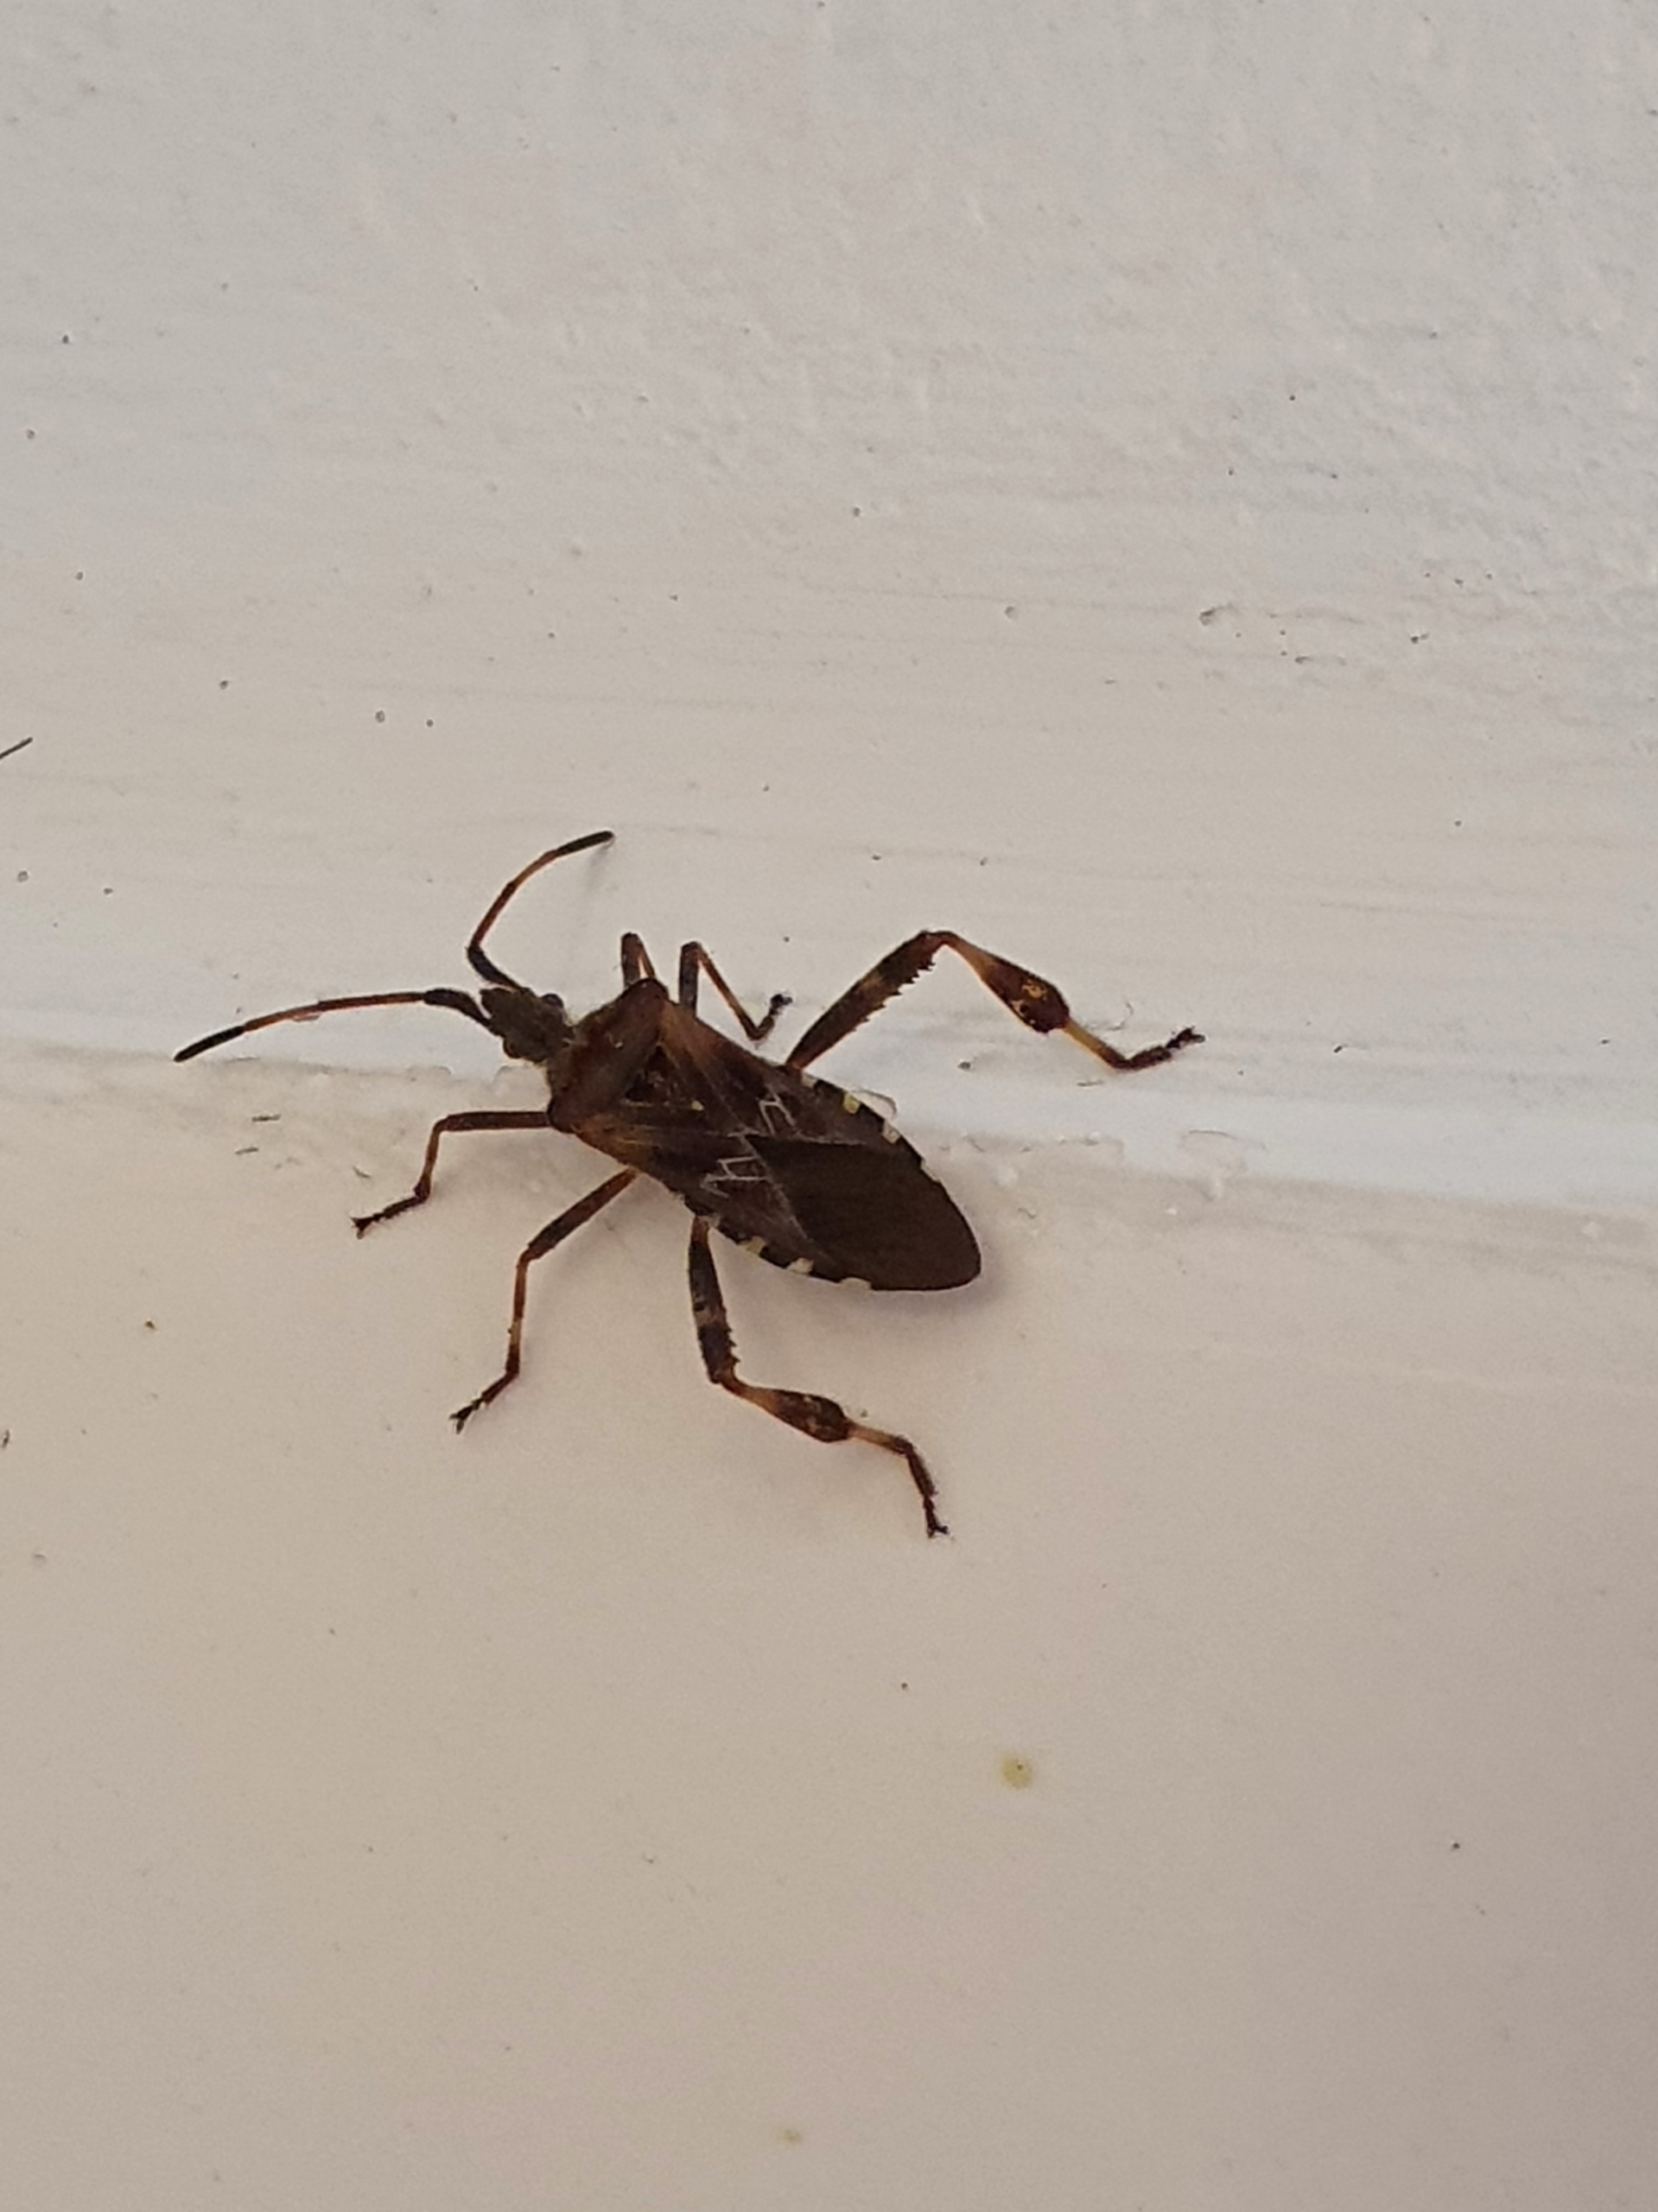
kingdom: Animalia
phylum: Arthropoda
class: Insecta
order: Hemiptera
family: Coreidae
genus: Leptoglossus
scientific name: Leptoglossus occidentalis
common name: Amerikansk fyrretæge
